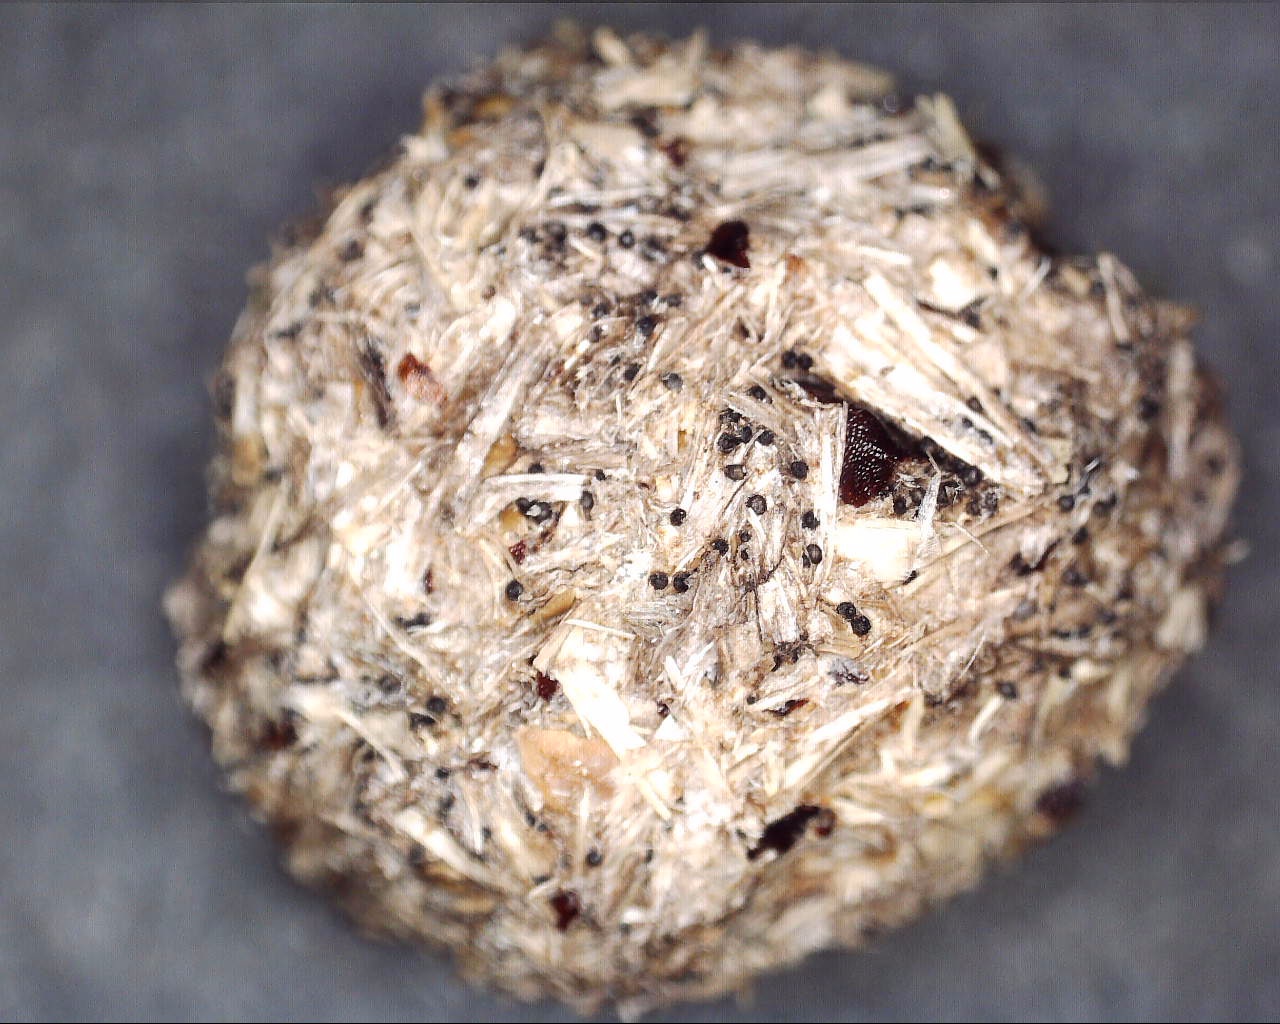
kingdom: Fungi
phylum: Ascomycota
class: Dothideomycetes
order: Pleosporales
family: Sporormiaceae
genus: Sporormiella
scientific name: Sporormiella
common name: knækspore
